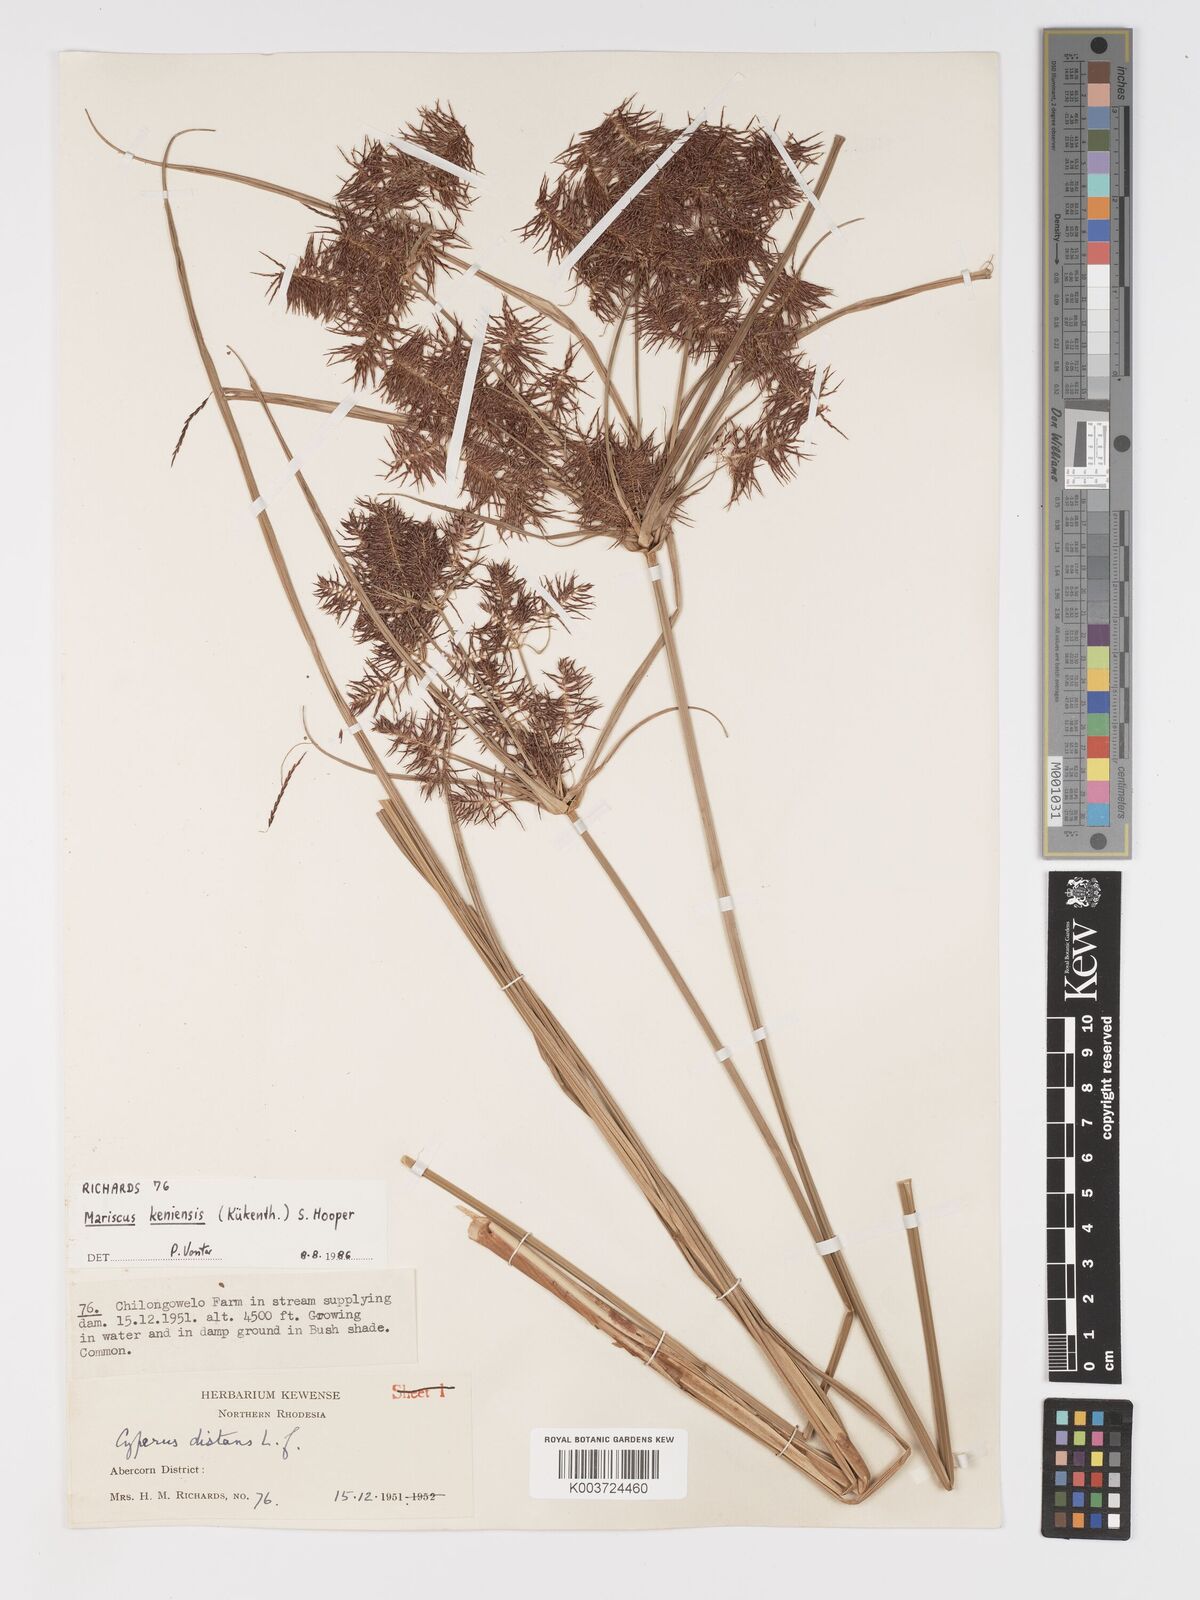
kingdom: Plantae
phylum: Tracheophyta
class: Liliopsida
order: Poales
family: Cyperaceae
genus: Cyperus
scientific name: Cyperus
